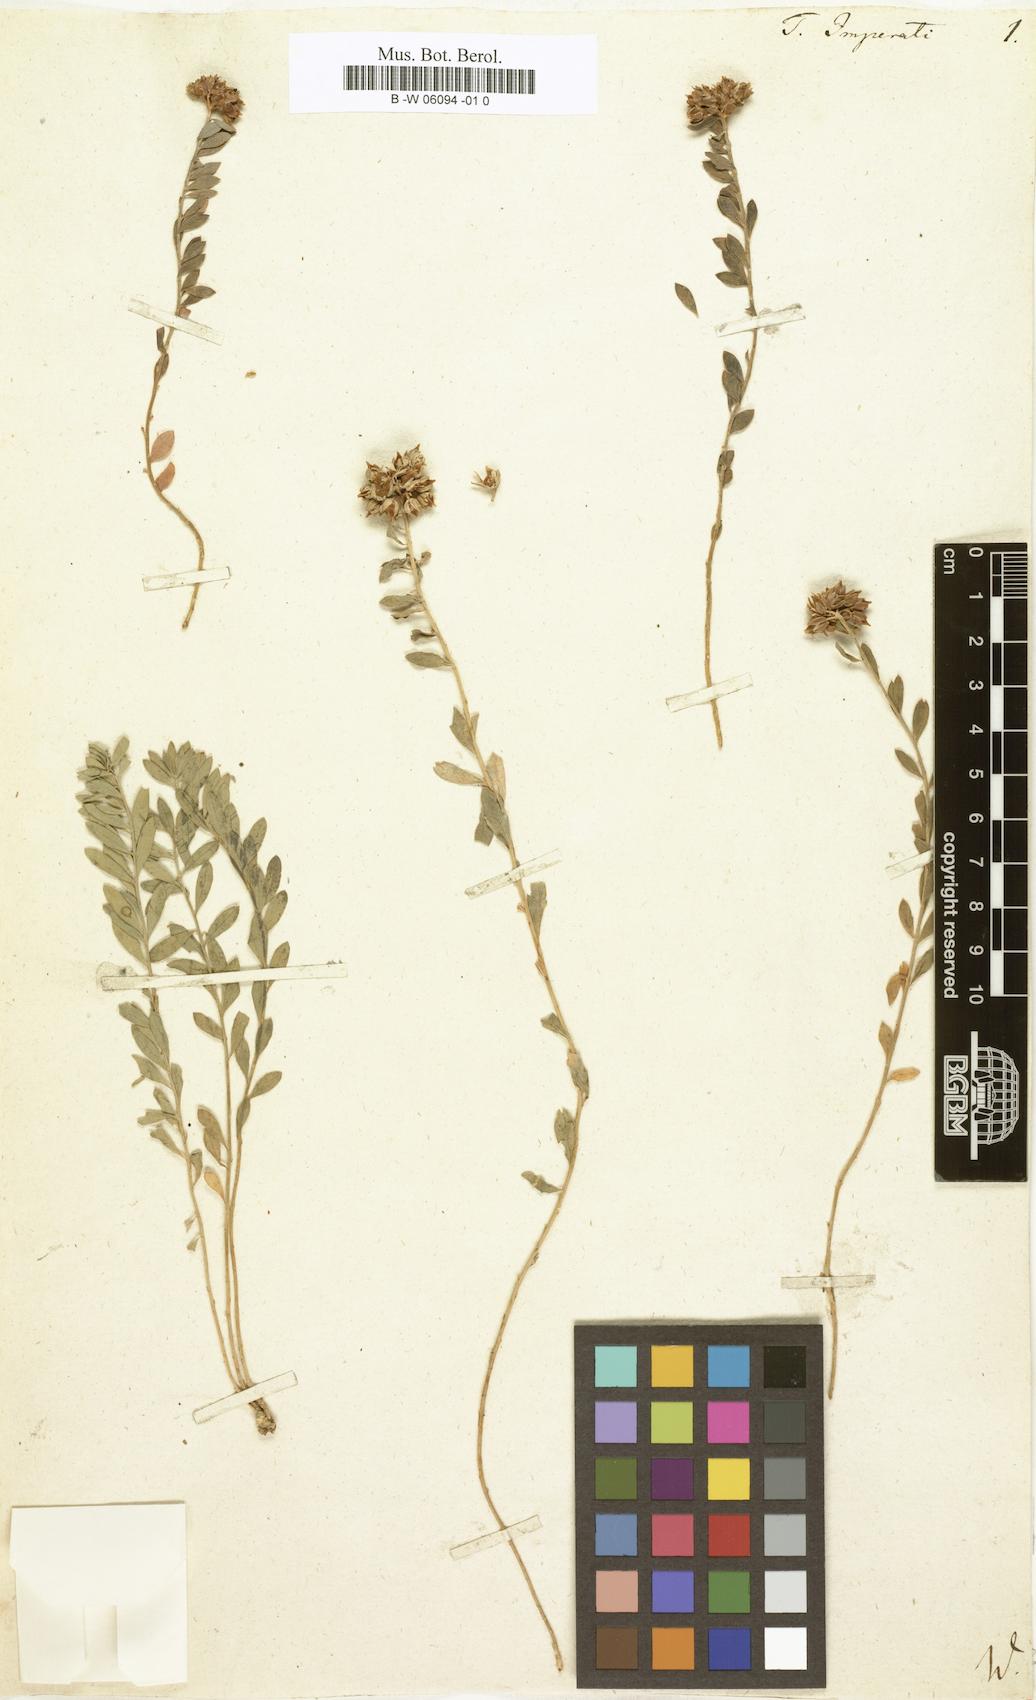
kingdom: Plantae
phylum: Tracheophyta
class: Magnoliopsida
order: Caryophyllales
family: Caryophyllaceae
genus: Telephium
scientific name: Telephium imperati
